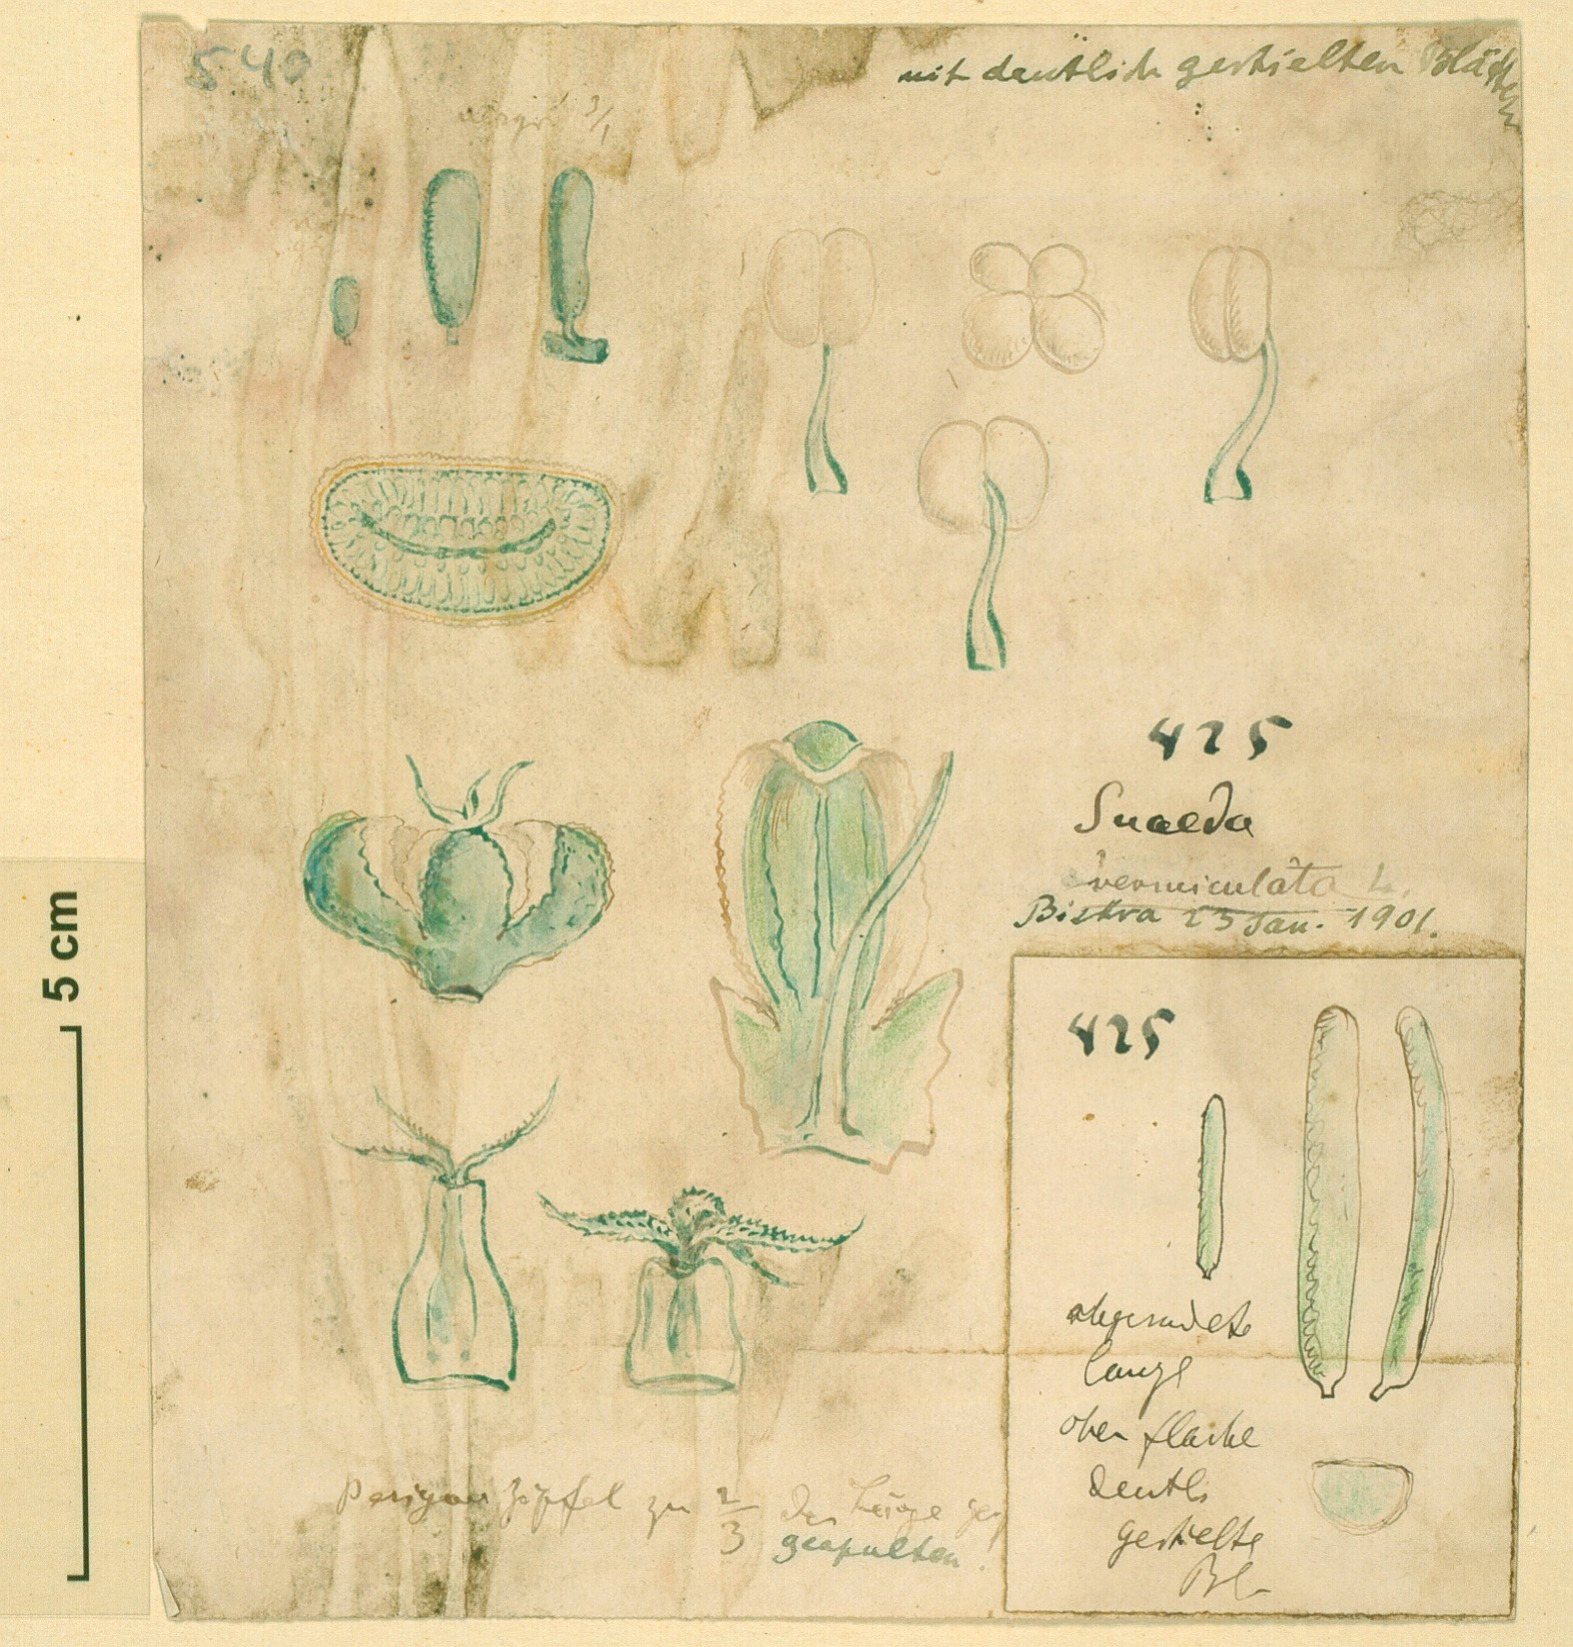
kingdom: Plantae
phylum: Tracheophyta
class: Magnoliopsida
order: Caryophyllales
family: Amaranthaceae
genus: Suaeda
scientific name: Suaeda vermiculata
